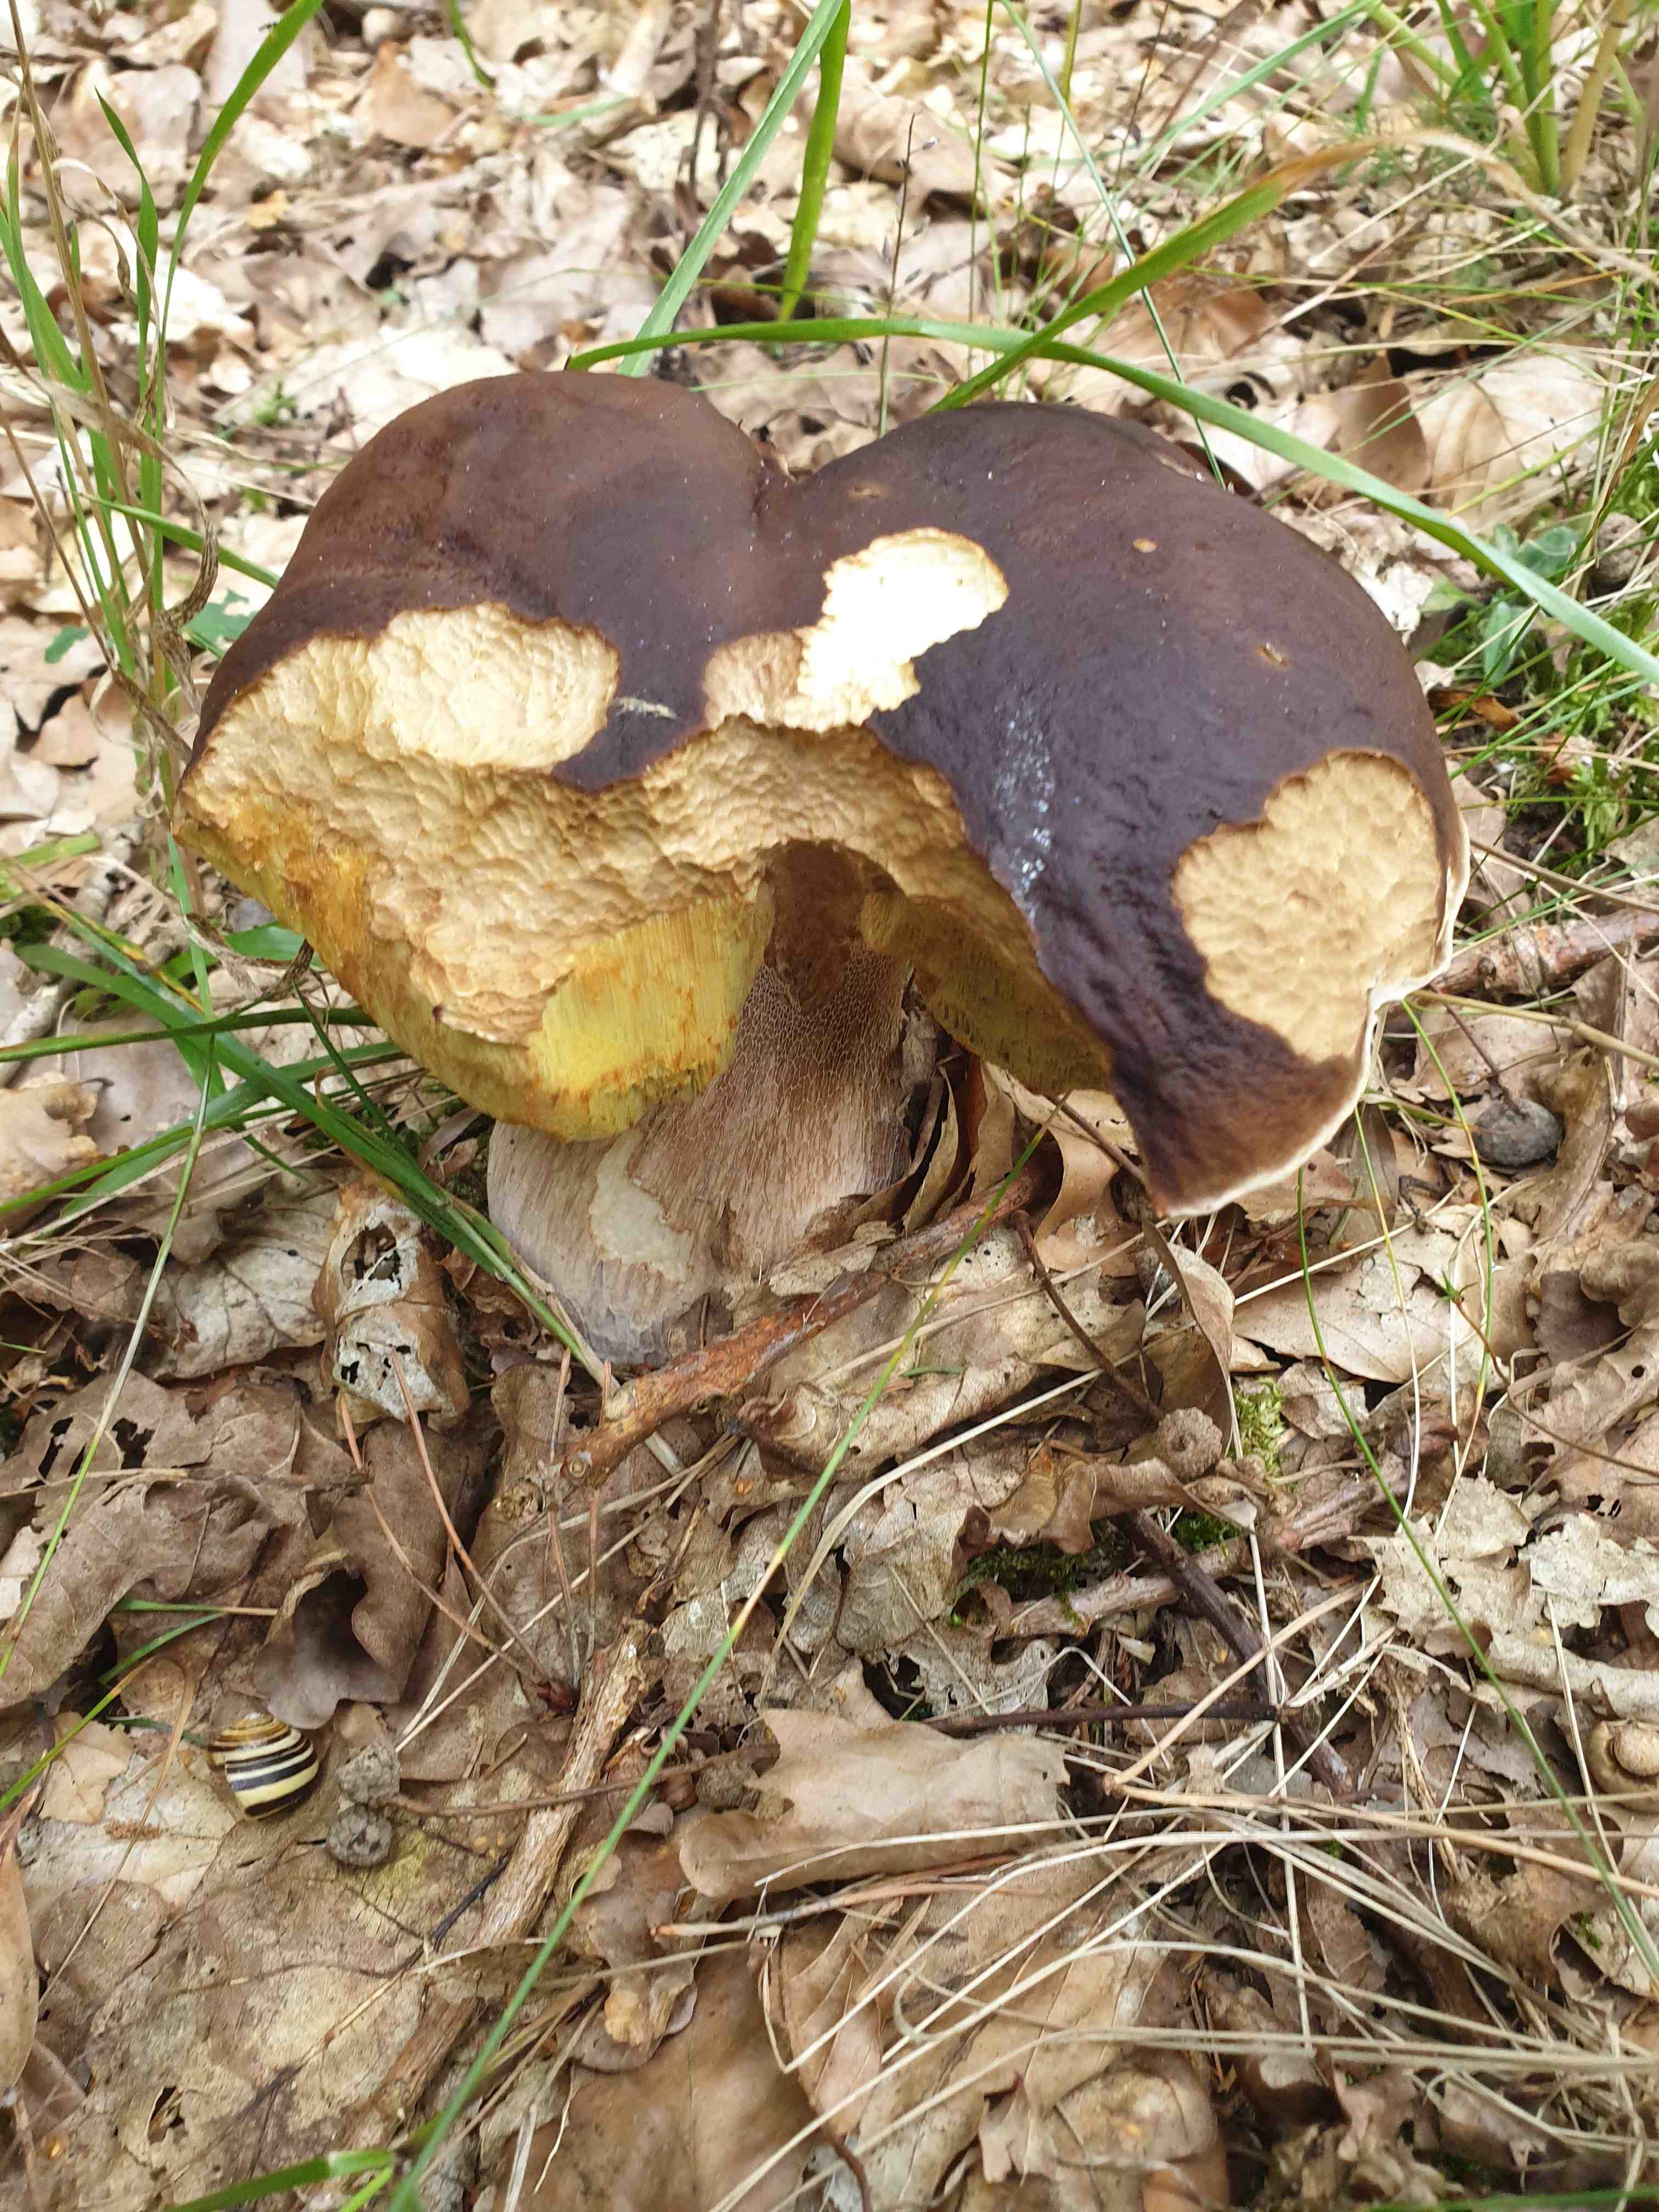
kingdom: Fungi
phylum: Basidiomycota
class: Agaricomycetes
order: Boletales
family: Boletaceae
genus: Boletus
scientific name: Boletus edulis
